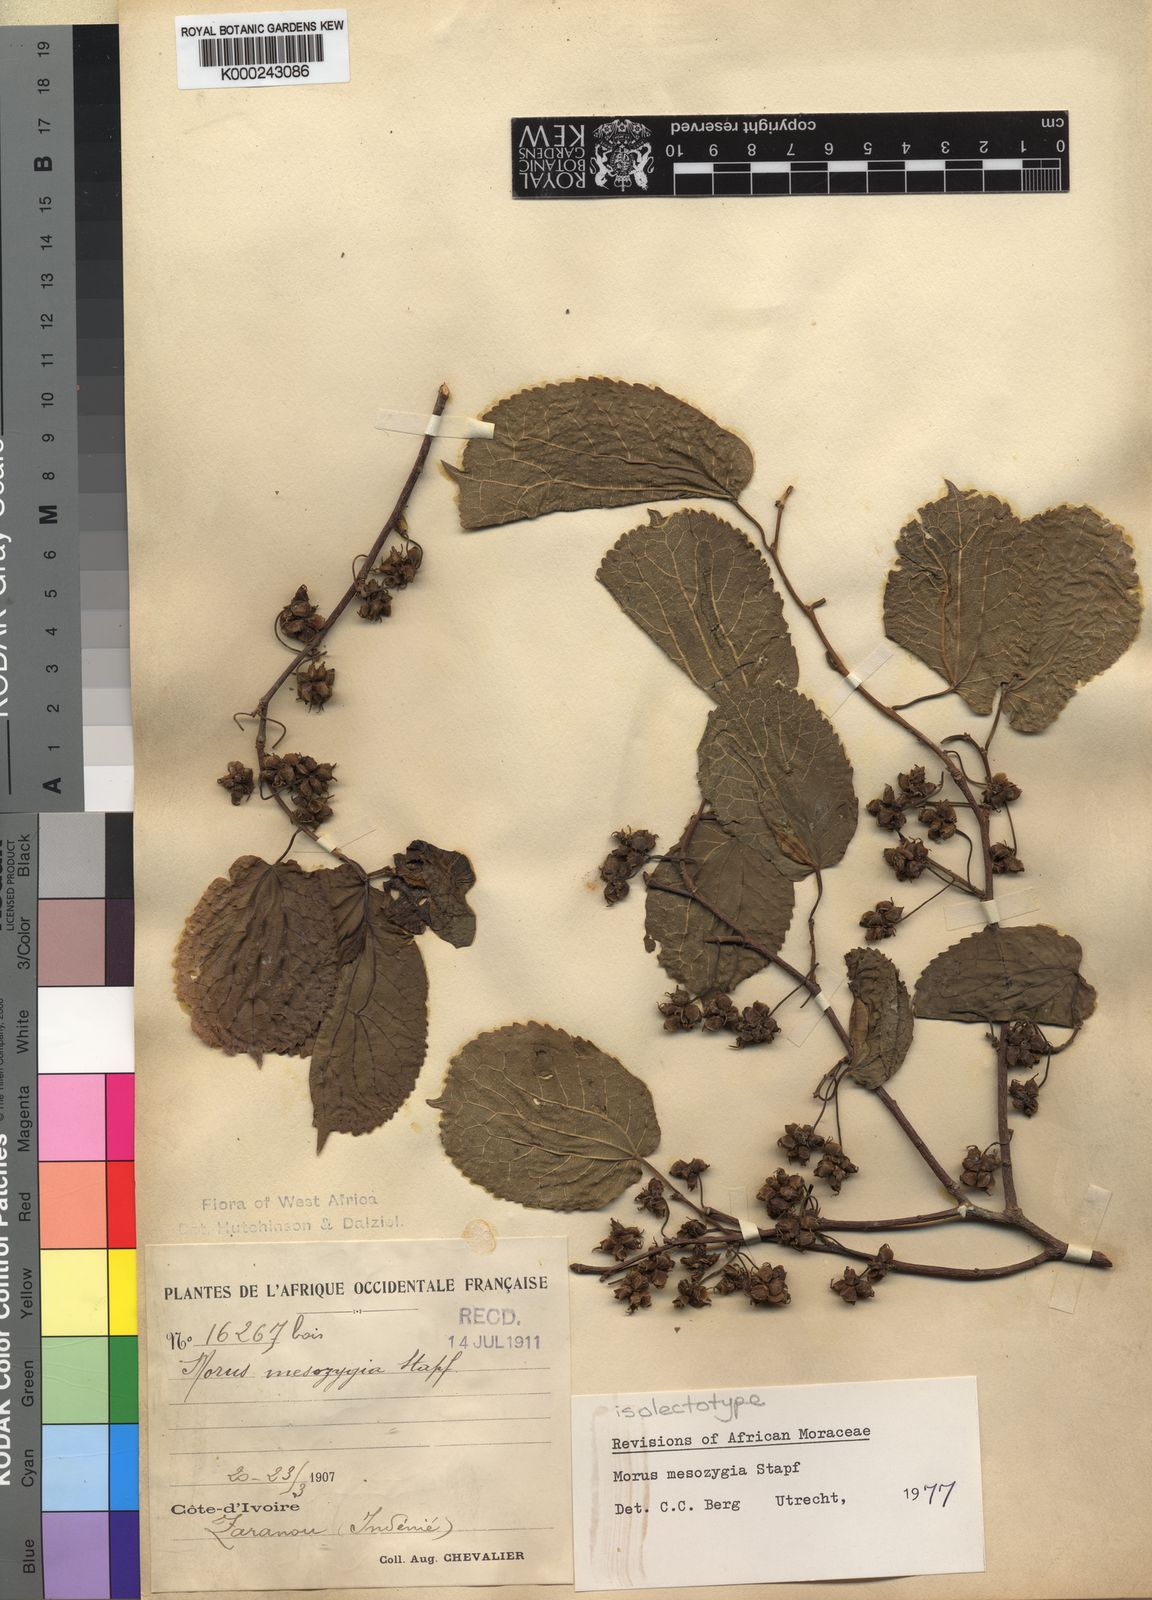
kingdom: Plantae
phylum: Tracheophyta
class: Magnoliopsida
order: Rosales
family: Moraceae
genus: Morus
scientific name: Morus
